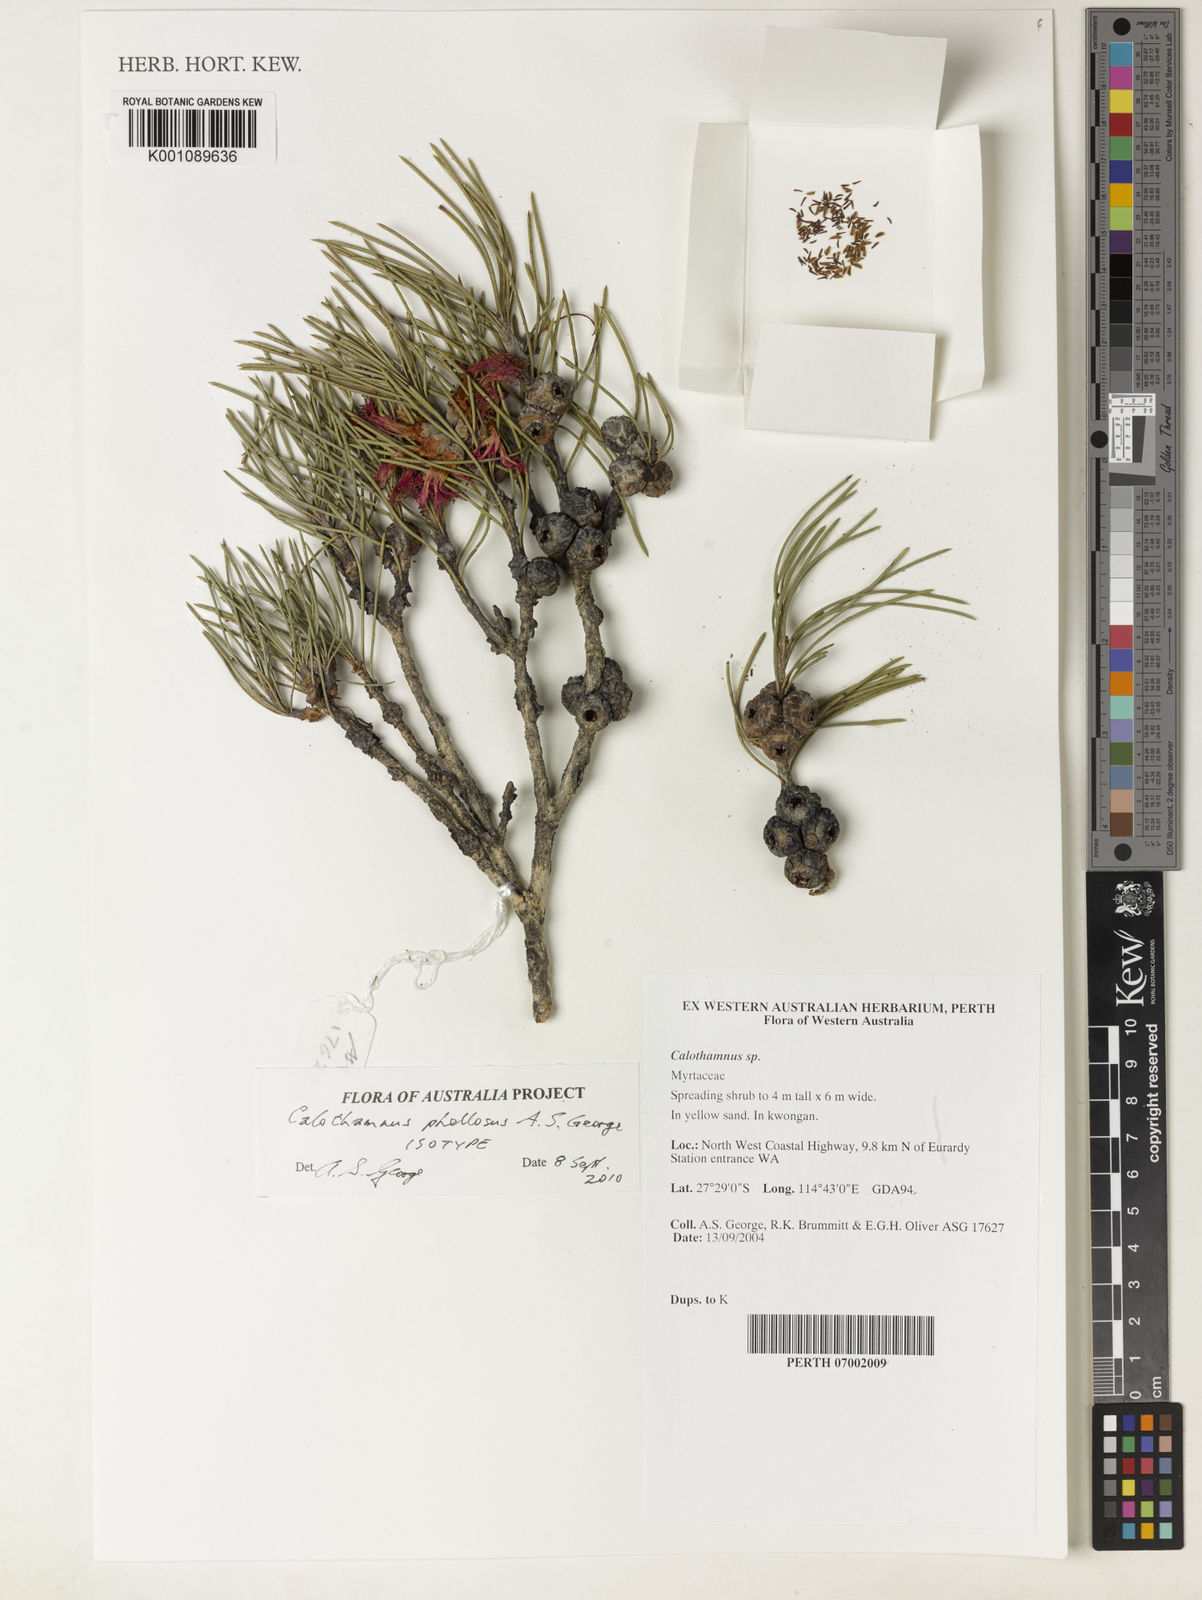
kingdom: Plantae
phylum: Tracheophyta
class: Magnoliopsida
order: Myrtales
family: Myrtaceae
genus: Melaleuca
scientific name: Melaleuca phellosa
